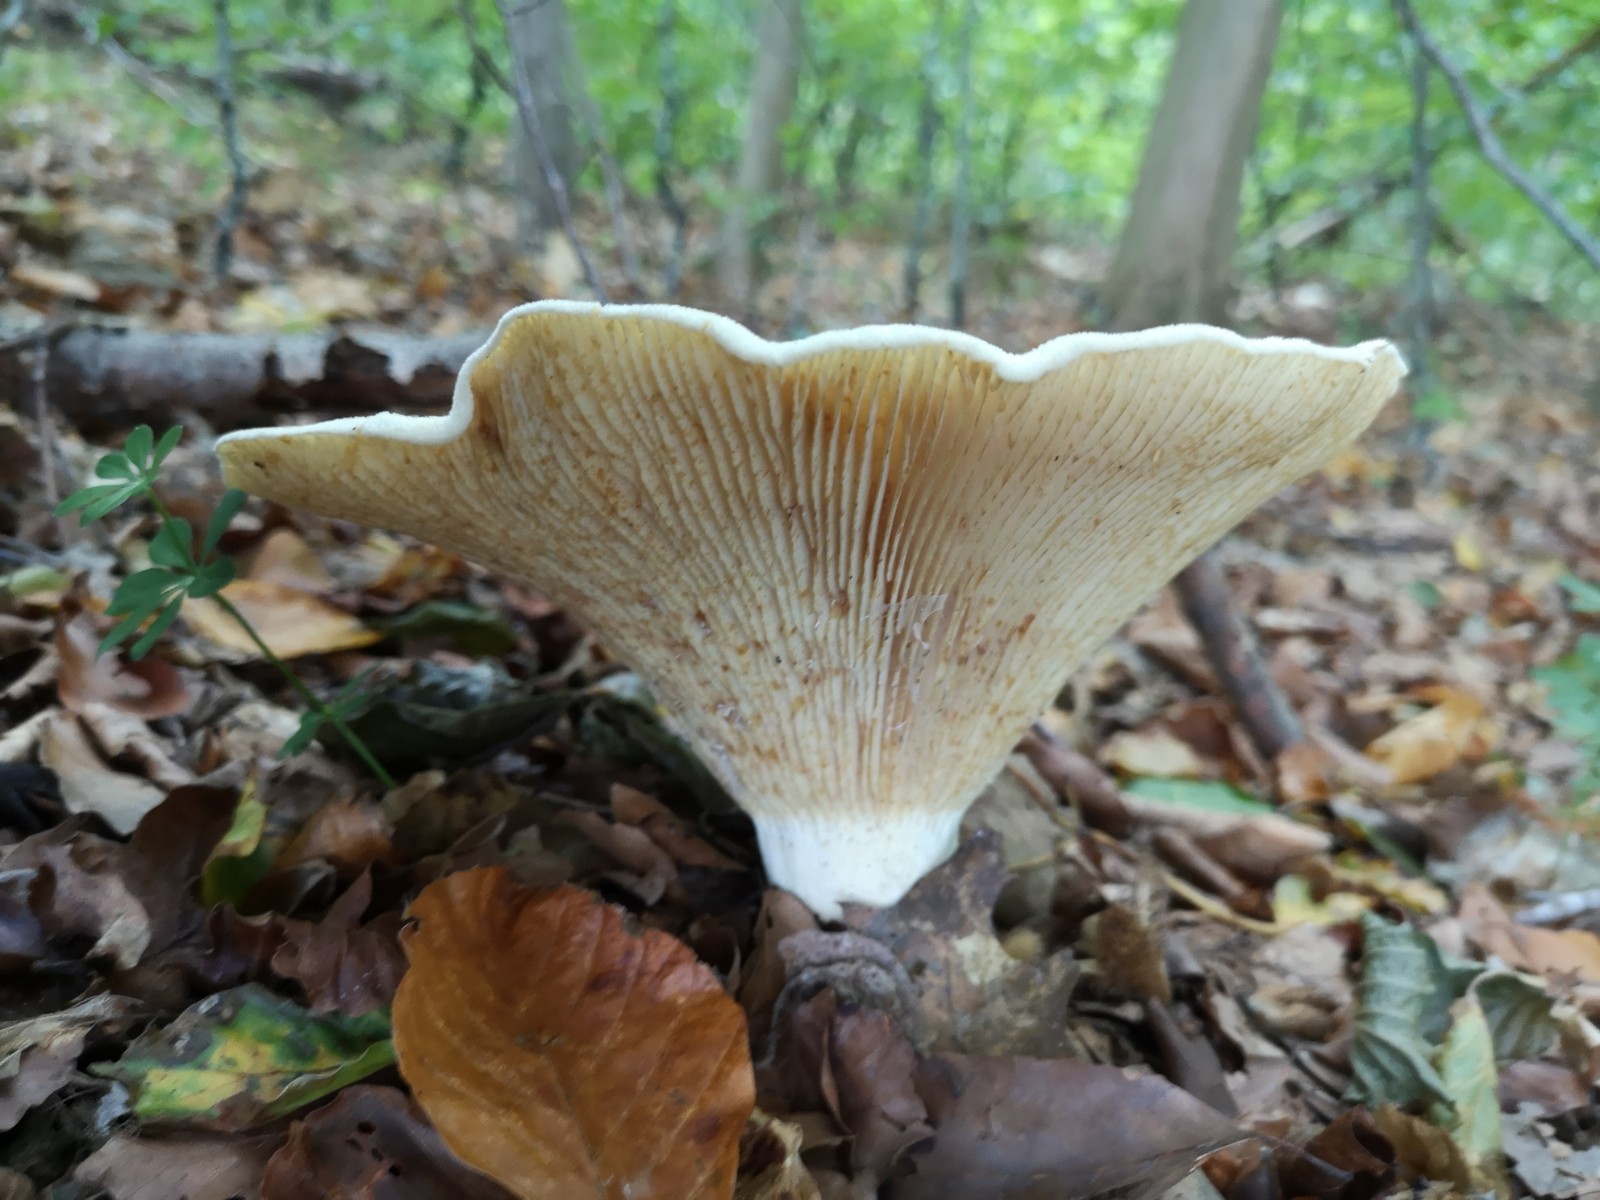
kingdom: Fungi
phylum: Basidiomycota
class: Agaricomycetes
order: Russulales
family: Russulaceae
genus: Lactifluus
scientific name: Lactifluus
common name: mælkehat
